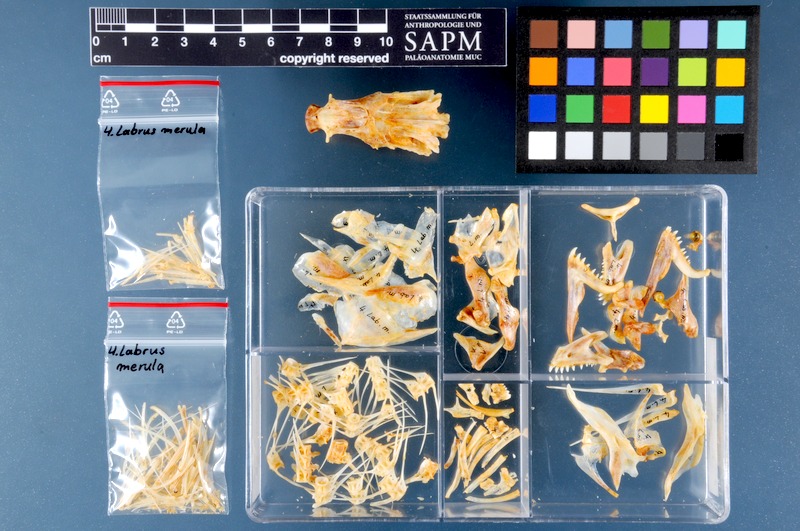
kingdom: Animalia
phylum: Chordata
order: Perciformes
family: Labridae
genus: Labrus
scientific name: Labrus merula
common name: Brown wrasse
